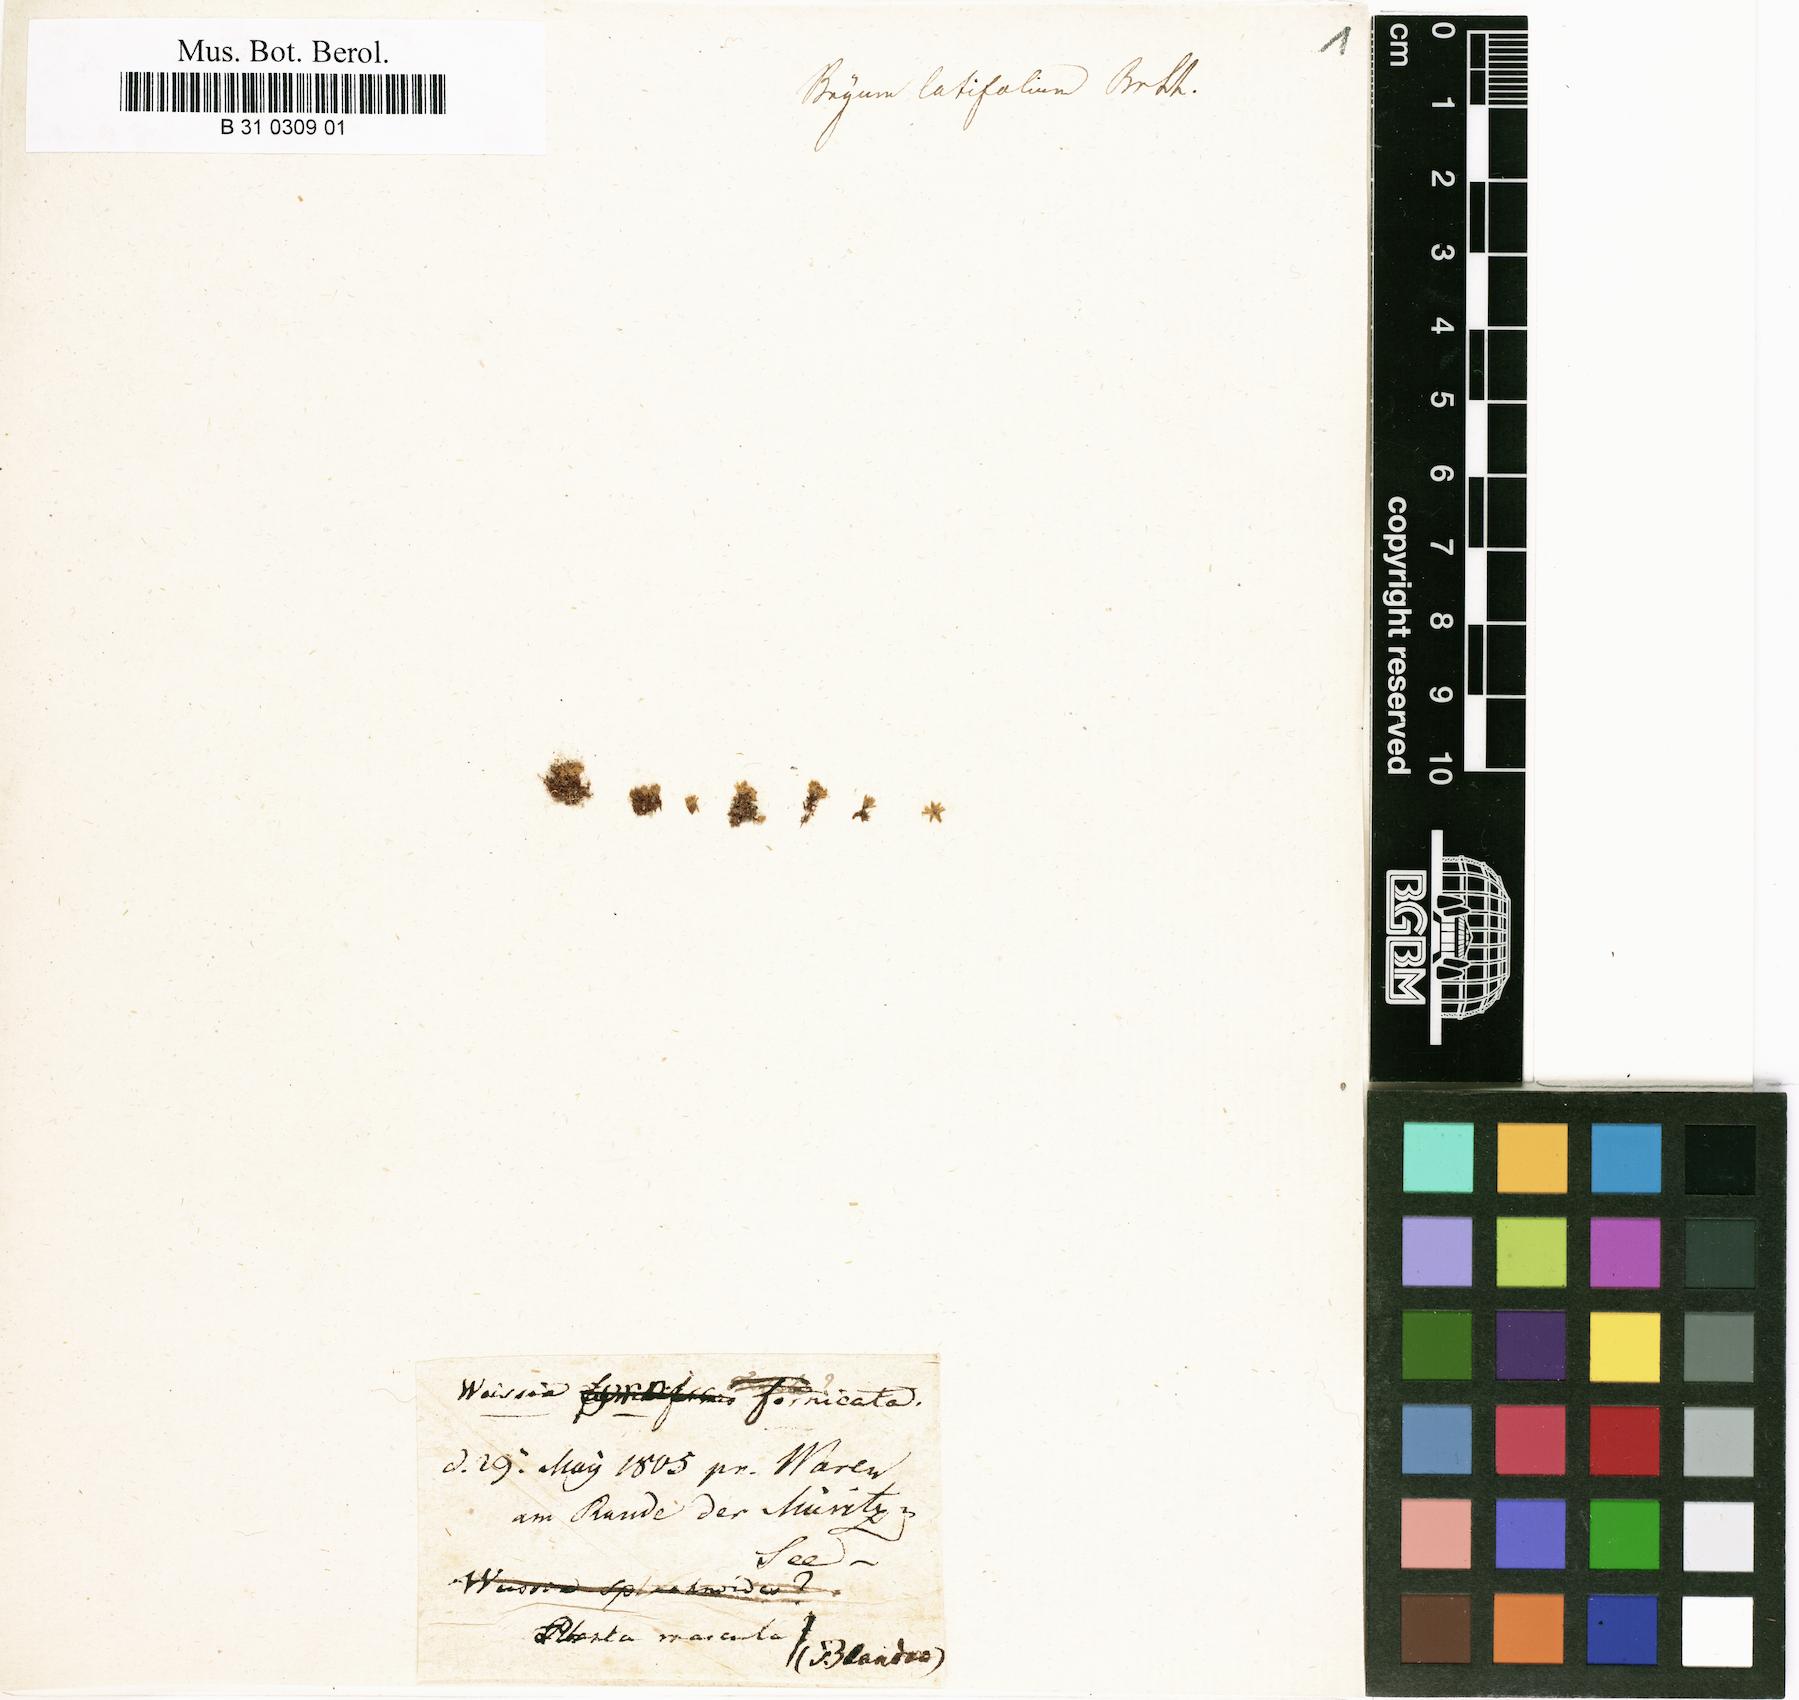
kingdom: Plantae
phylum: Bryophyta
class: Bryopsida
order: Pottiales
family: Pottiaceae
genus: Weissia
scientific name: Weissia fornicata
